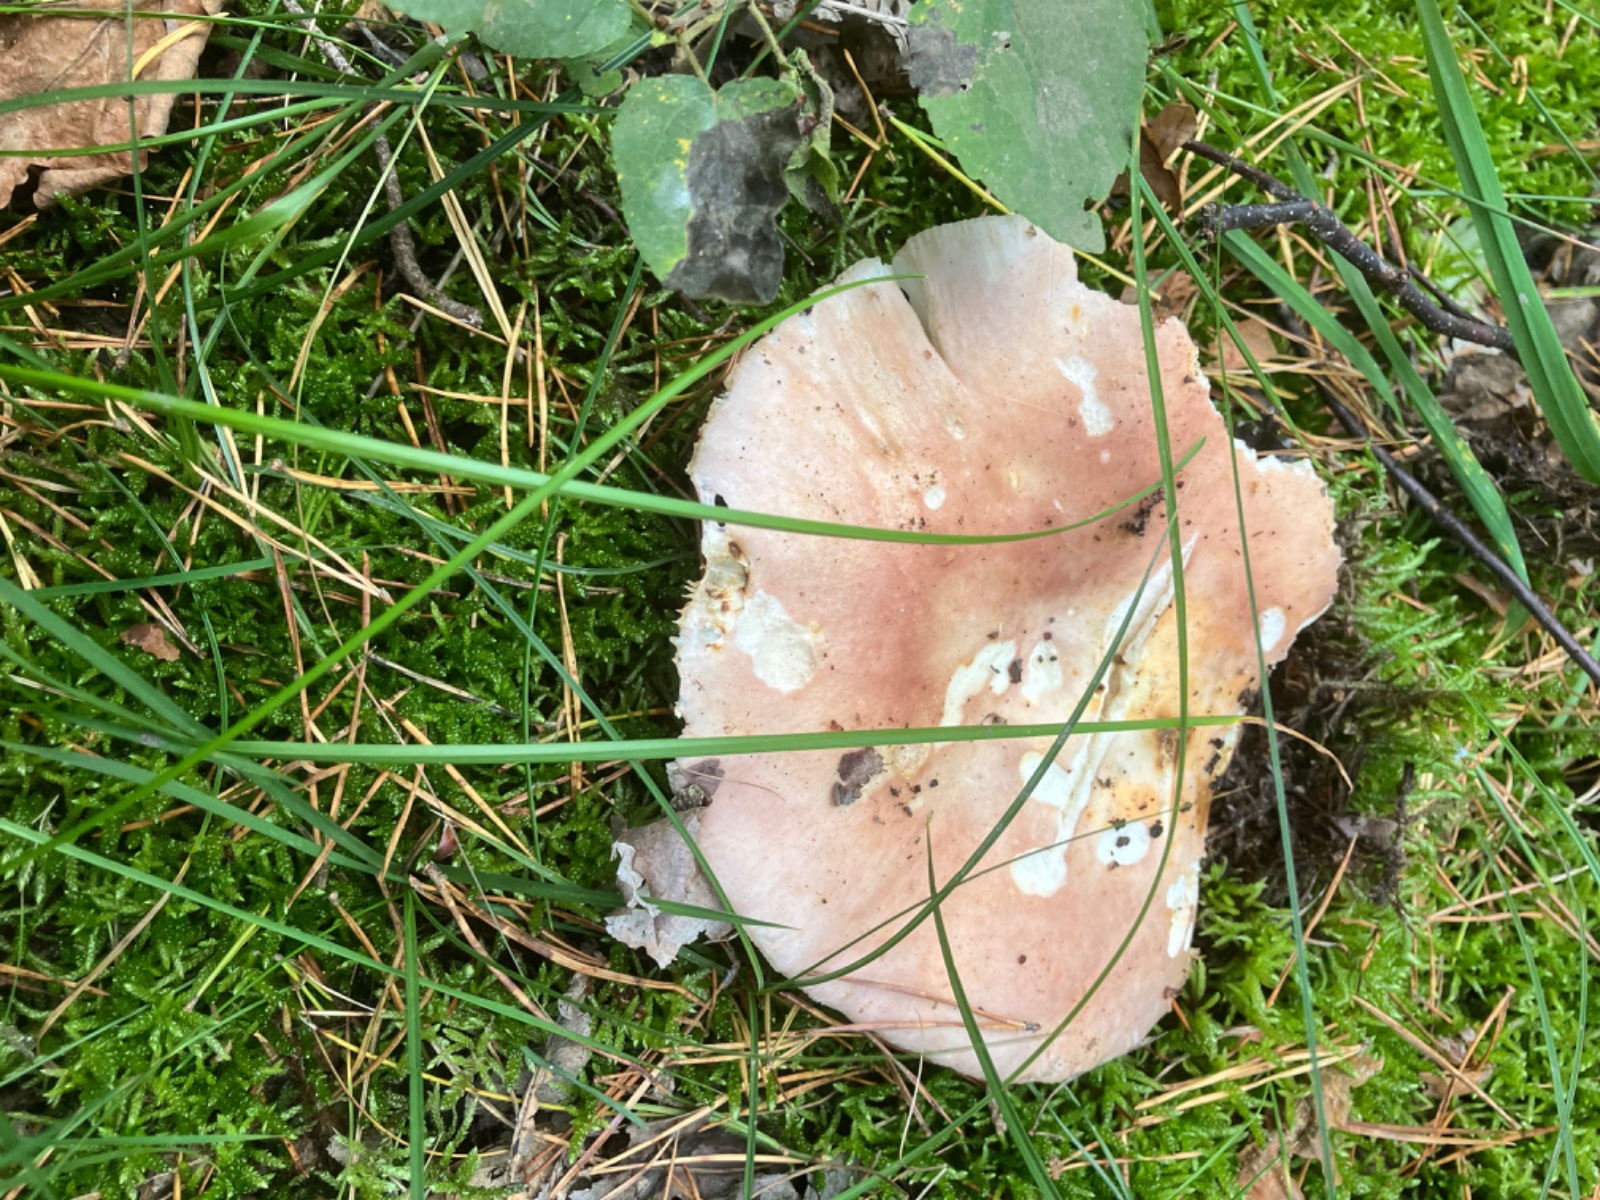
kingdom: Fungi
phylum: Basidiomycota
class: Agaricomycetes
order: Russulales
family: Russulaceae
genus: Russula
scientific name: Russula
